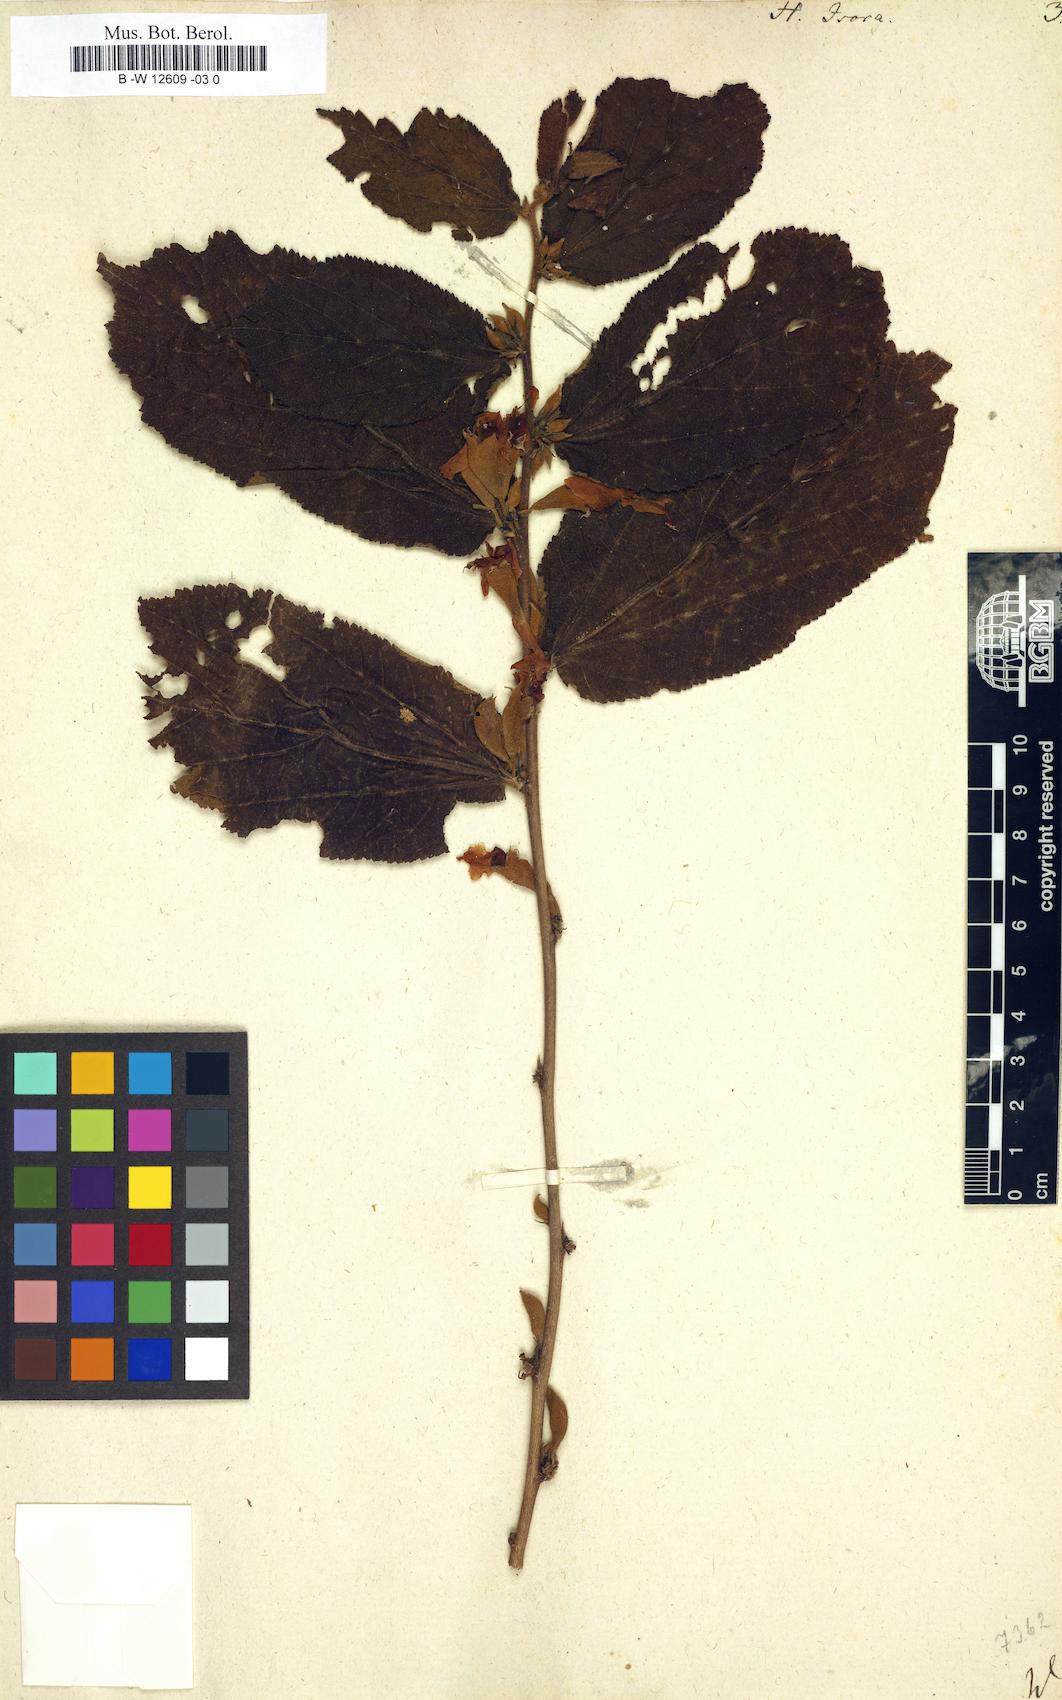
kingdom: Plantae
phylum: Tracheophyta
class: Magnoliopsida
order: Malvales
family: Malvaceae
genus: Helicteres
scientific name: Helicteres isora
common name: East indian screwtree
